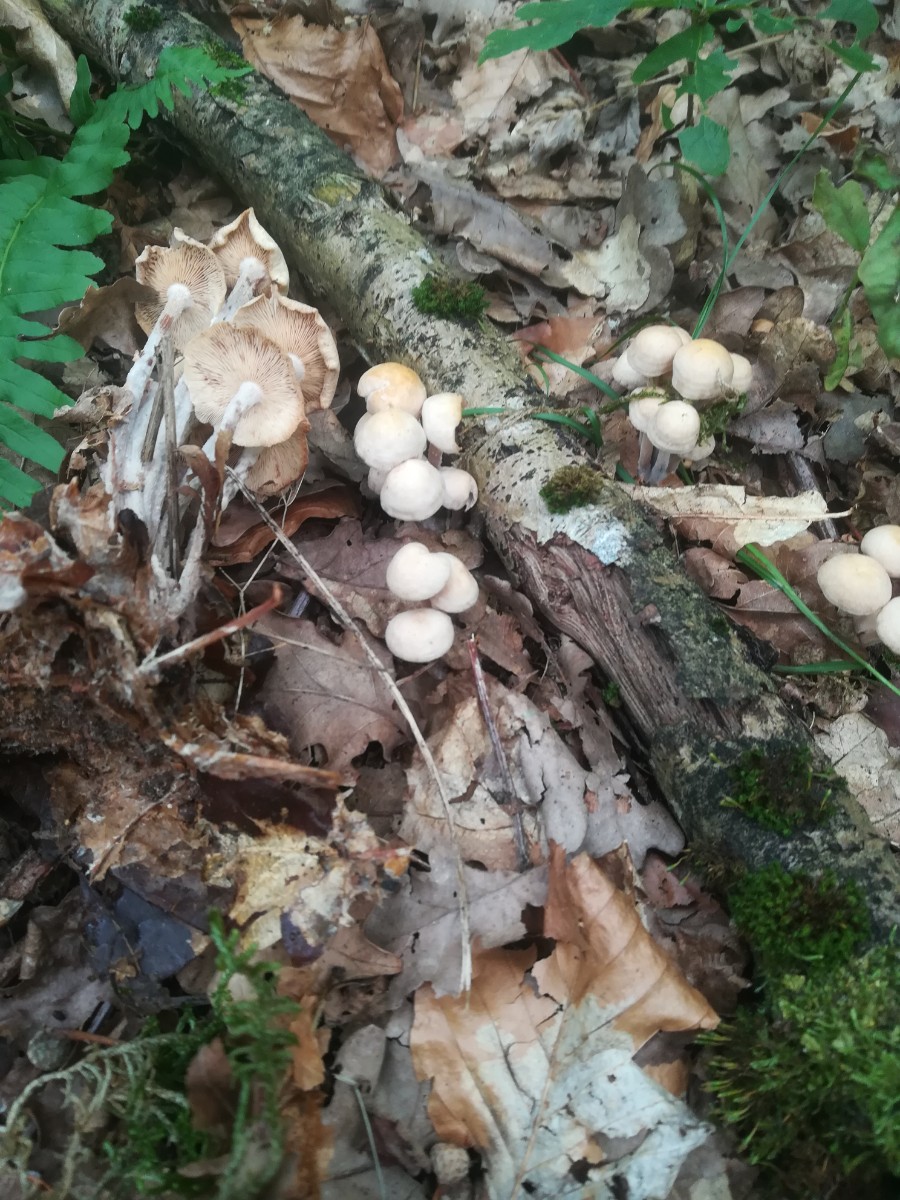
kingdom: Fungi
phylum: Basidiomycota
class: Agaricomycetes
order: Agaricales
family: Omphalotaceae
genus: Collybiopsis
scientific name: Collybiopsis confluens
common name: knippe-fladhat
